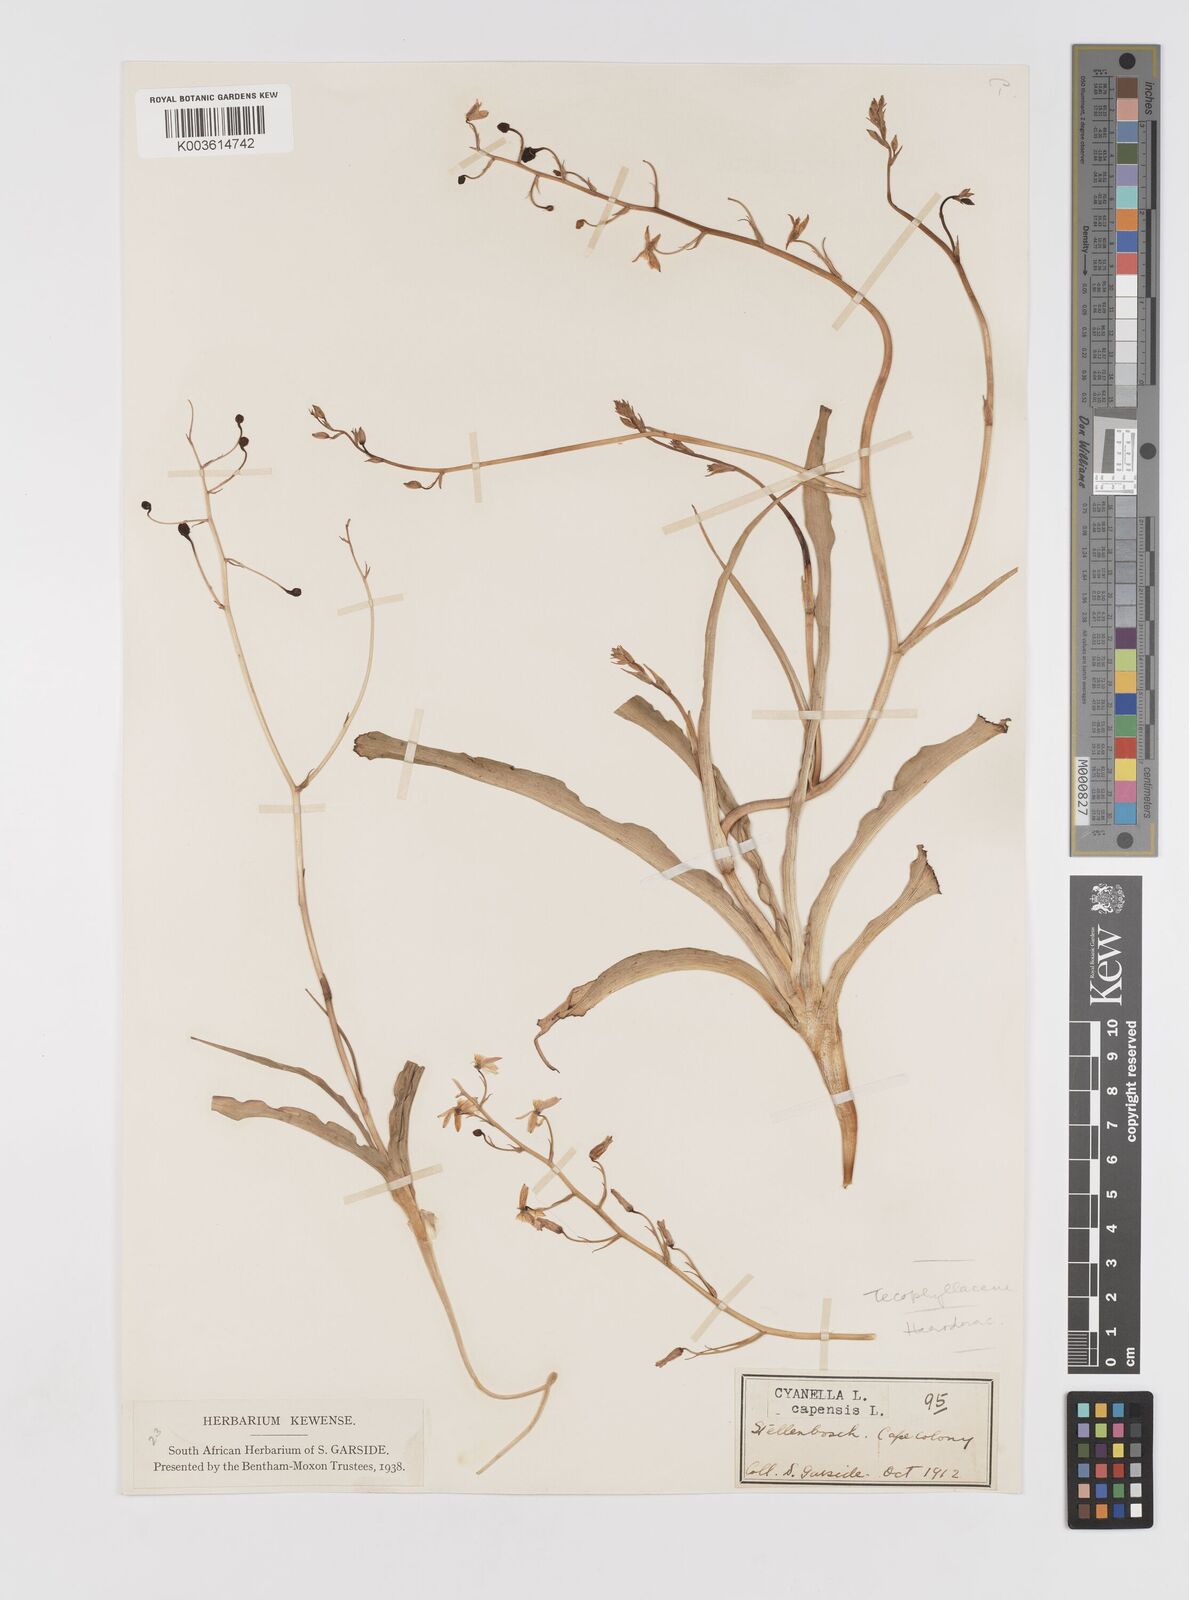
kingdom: Plantae
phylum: Tracheophyta
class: Liliopsida
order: Asparagales
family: Tecophilaeaceae
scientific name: Tecophilaeaceae
